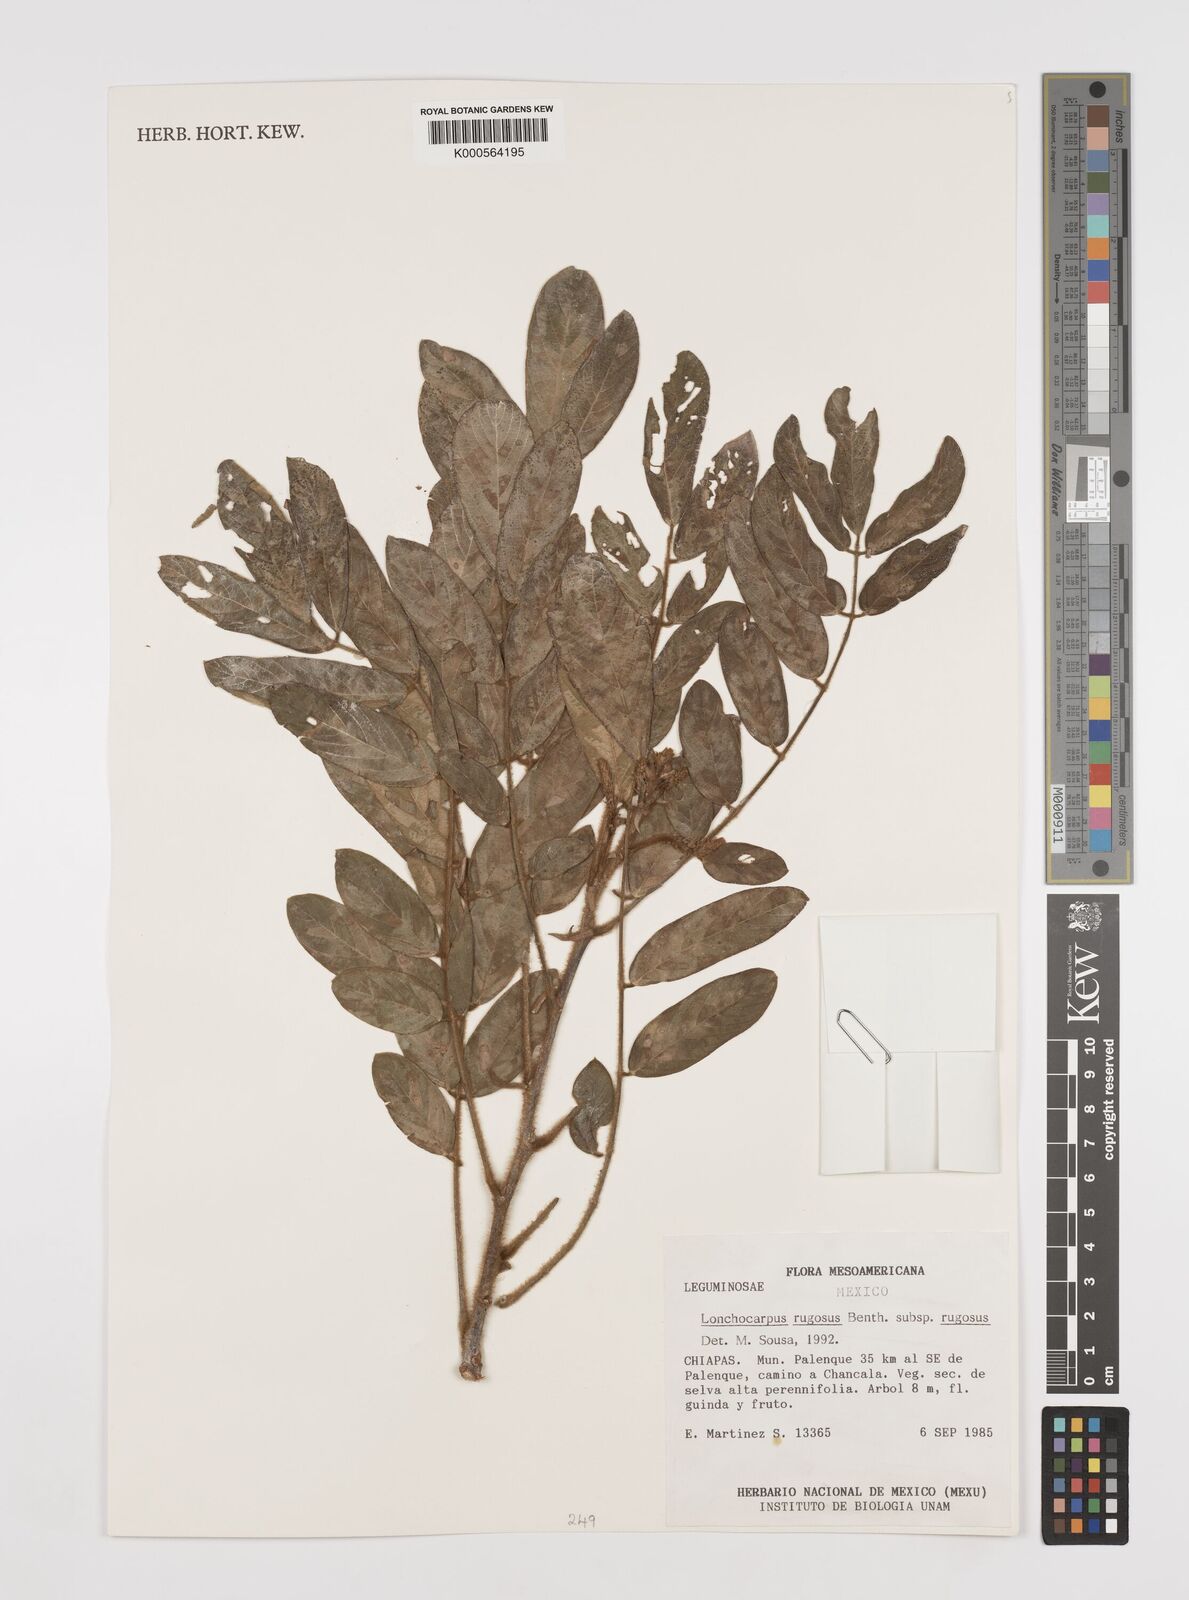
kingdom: Plantae
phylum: Tracheophyta
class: Magnoliopsida
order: Fabales
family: Fabaceae
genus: Lonchocarpus
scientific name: Lonchocarpus rugosus
